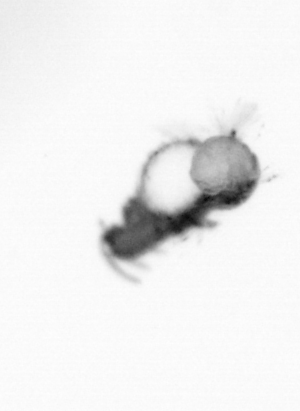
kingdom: Animalia
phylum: Annelida
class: Polychaeta
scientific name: Polychaeta
